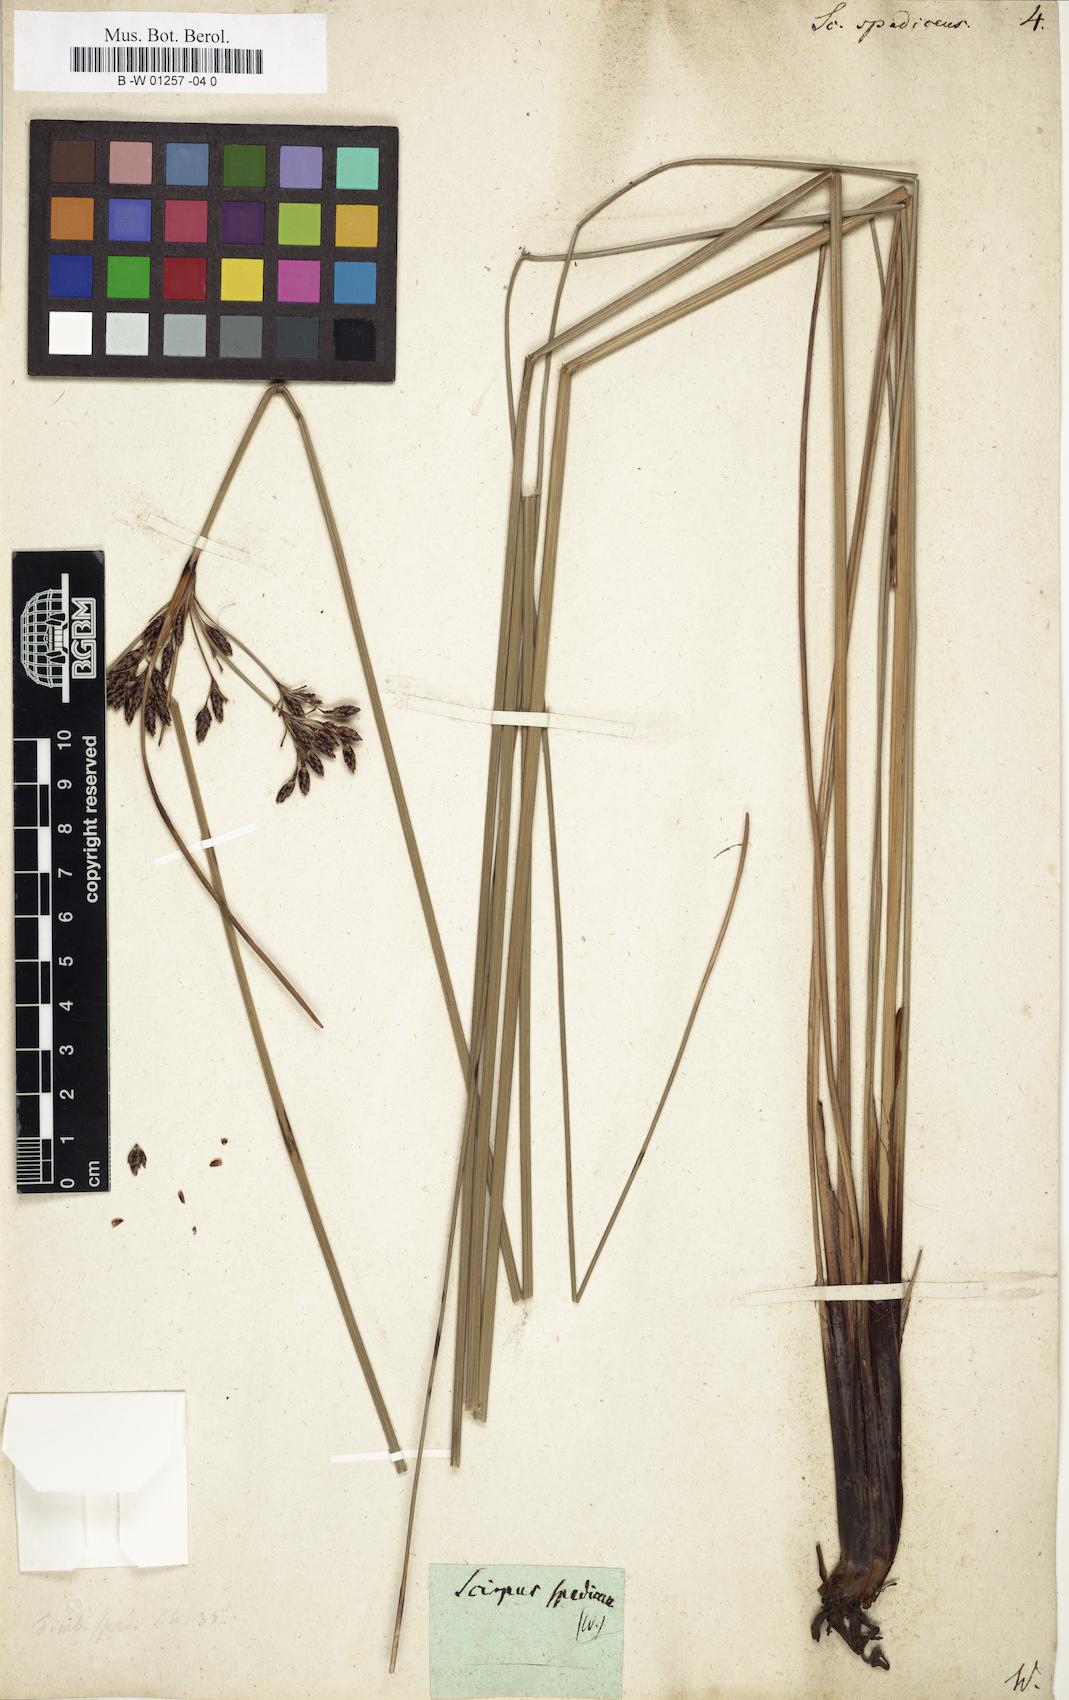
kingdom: Plantae
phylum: Tracheophyta
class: Liliopsida
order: Poales
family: Cyperaceae
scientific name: Cyperaceae
